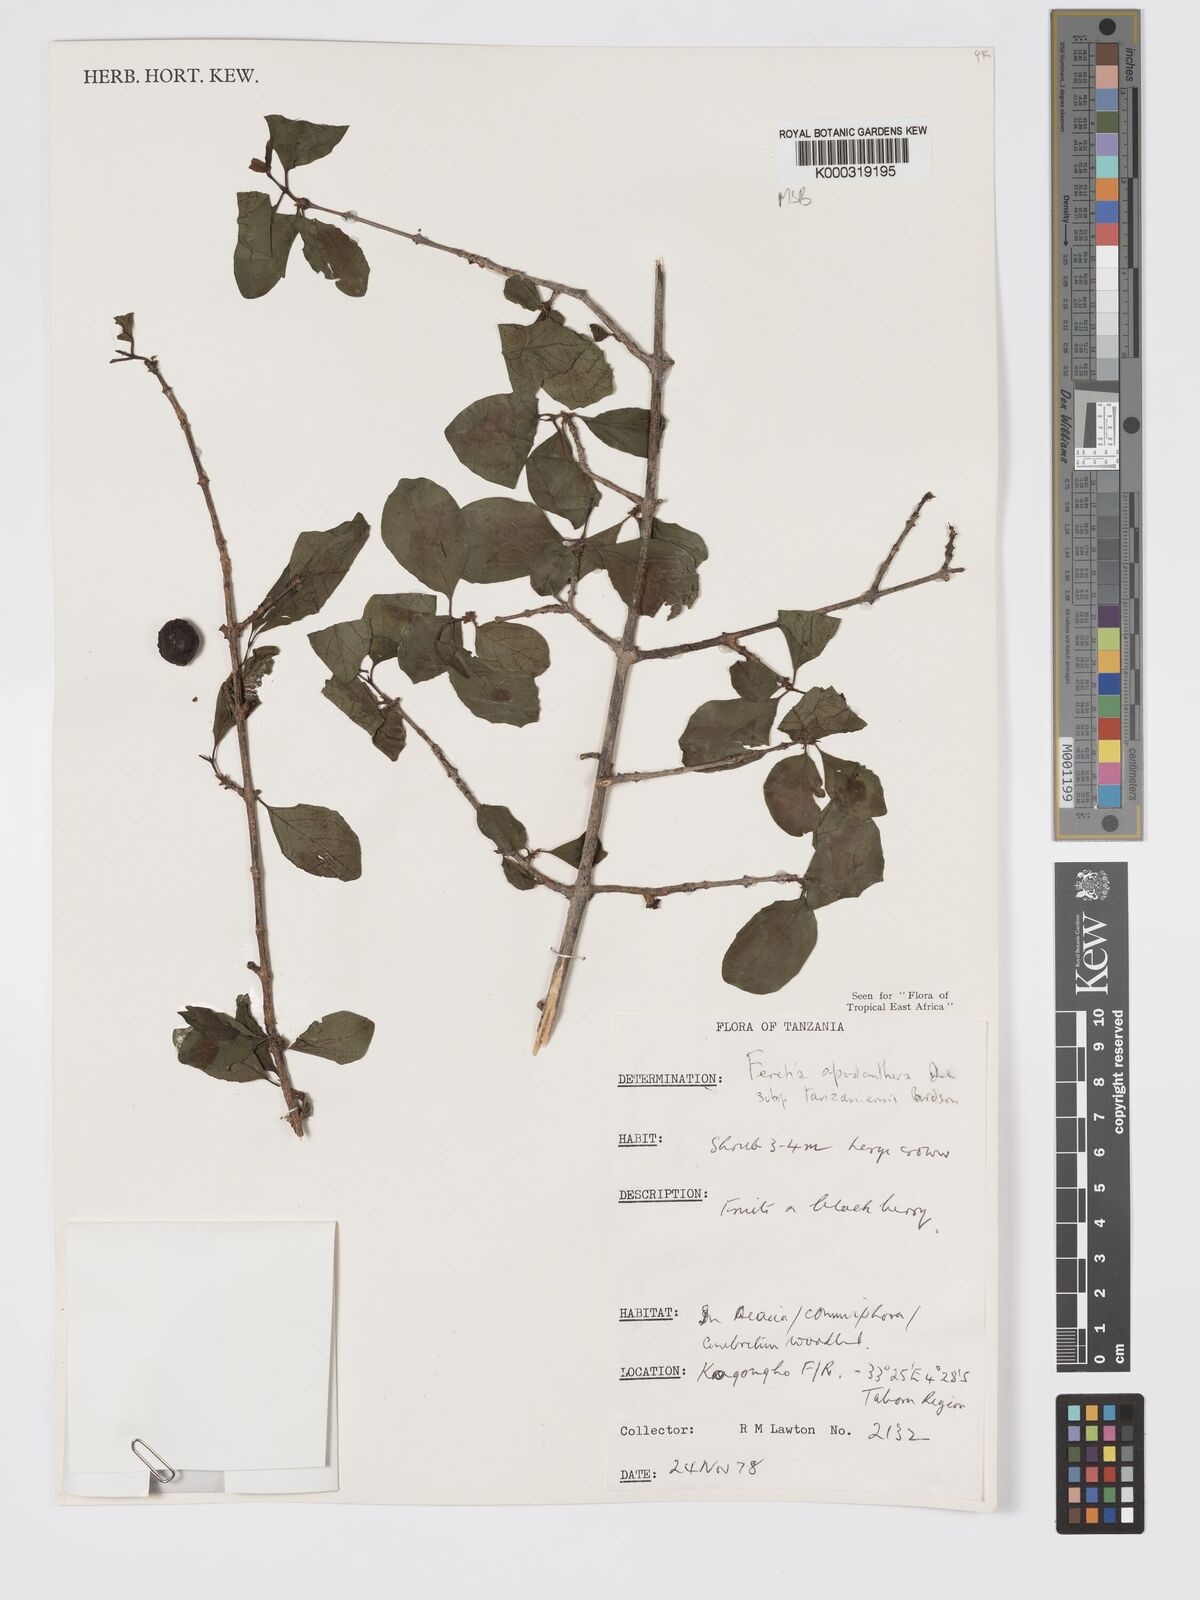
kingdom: Plantae
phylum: Tracheophyta
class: Magnoliopsida
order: Gentianales
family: Rubiaceae
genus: Feretia
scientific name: Feretia apodanthera
